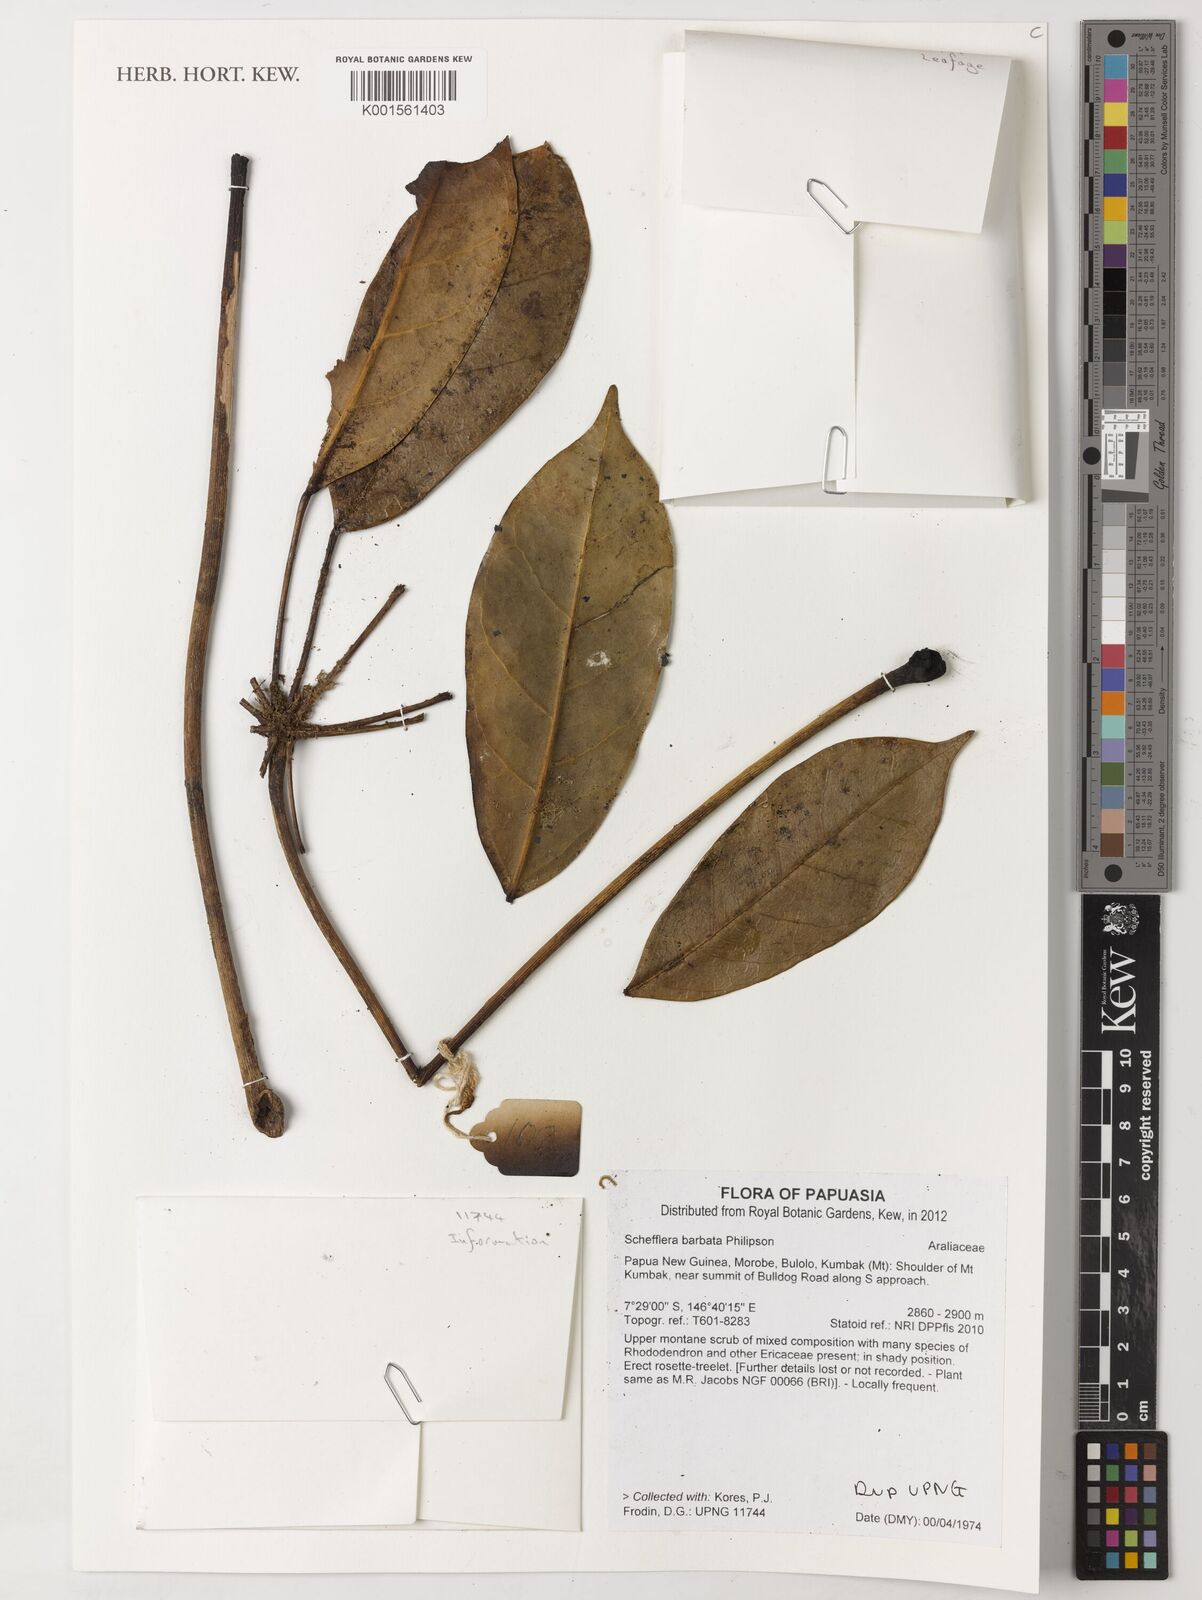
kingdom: Plantae
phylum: Tracheophyta
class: Magnoliopsida
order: Apiales
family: Araliaceae
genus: Heptapleurum
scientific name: Heptapleurum barbatum
